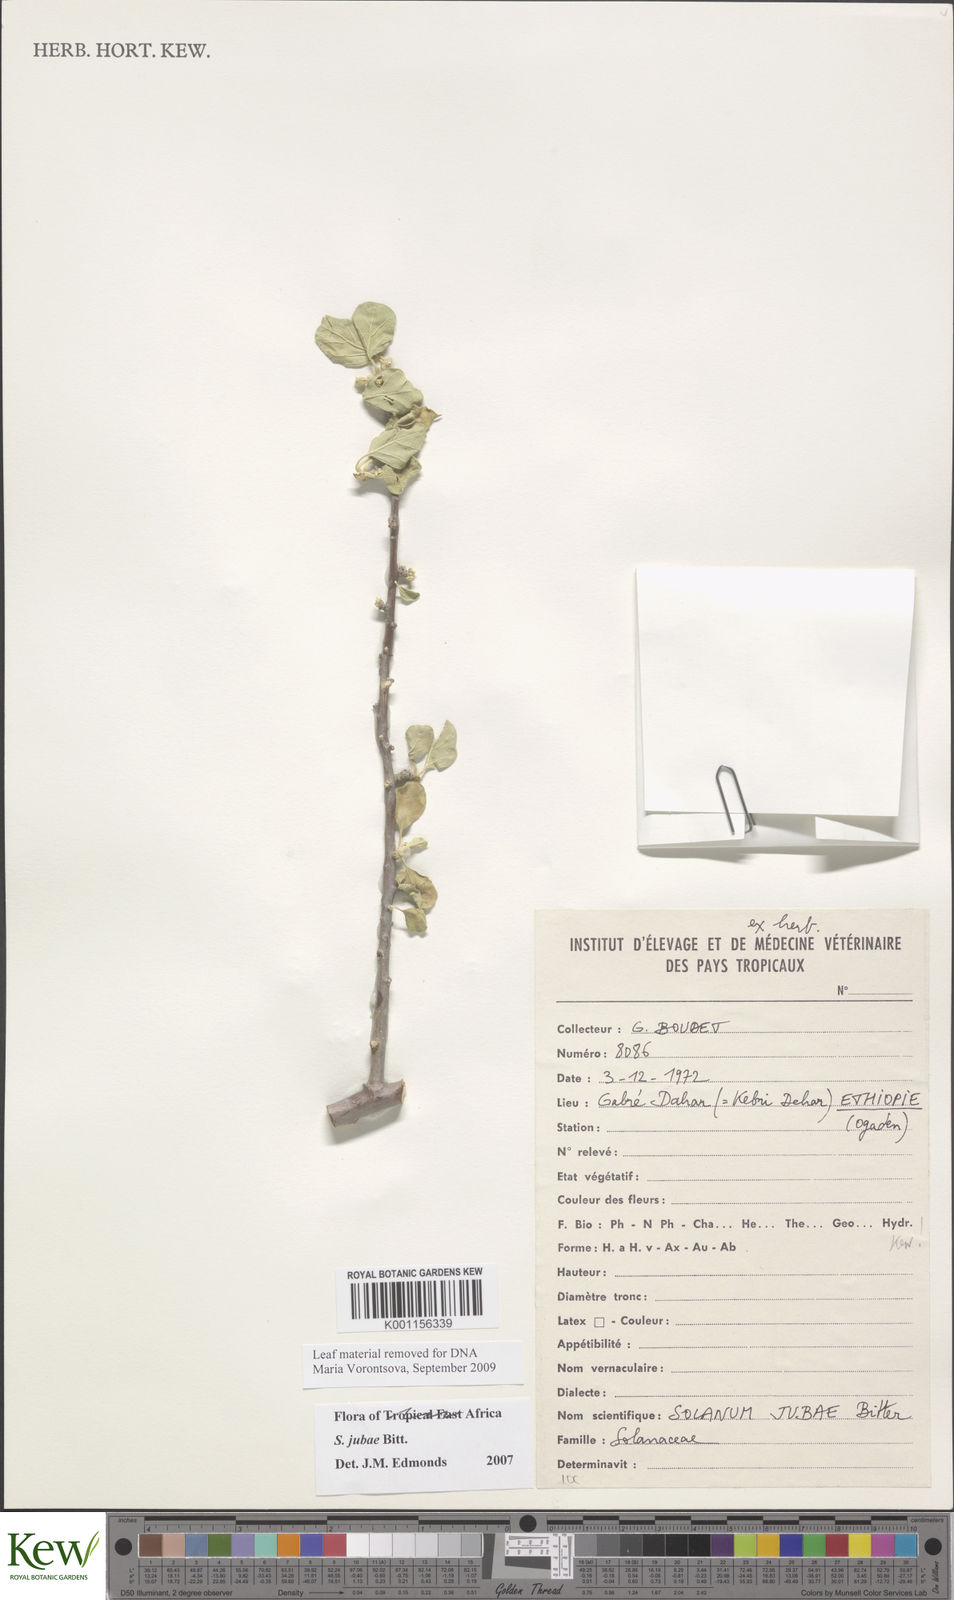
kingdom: Plantae
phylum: Tracheophyta
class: Magnoliopsida
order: Solanales
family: Solanaceae
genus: Solanum
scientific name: Solanum jubae
